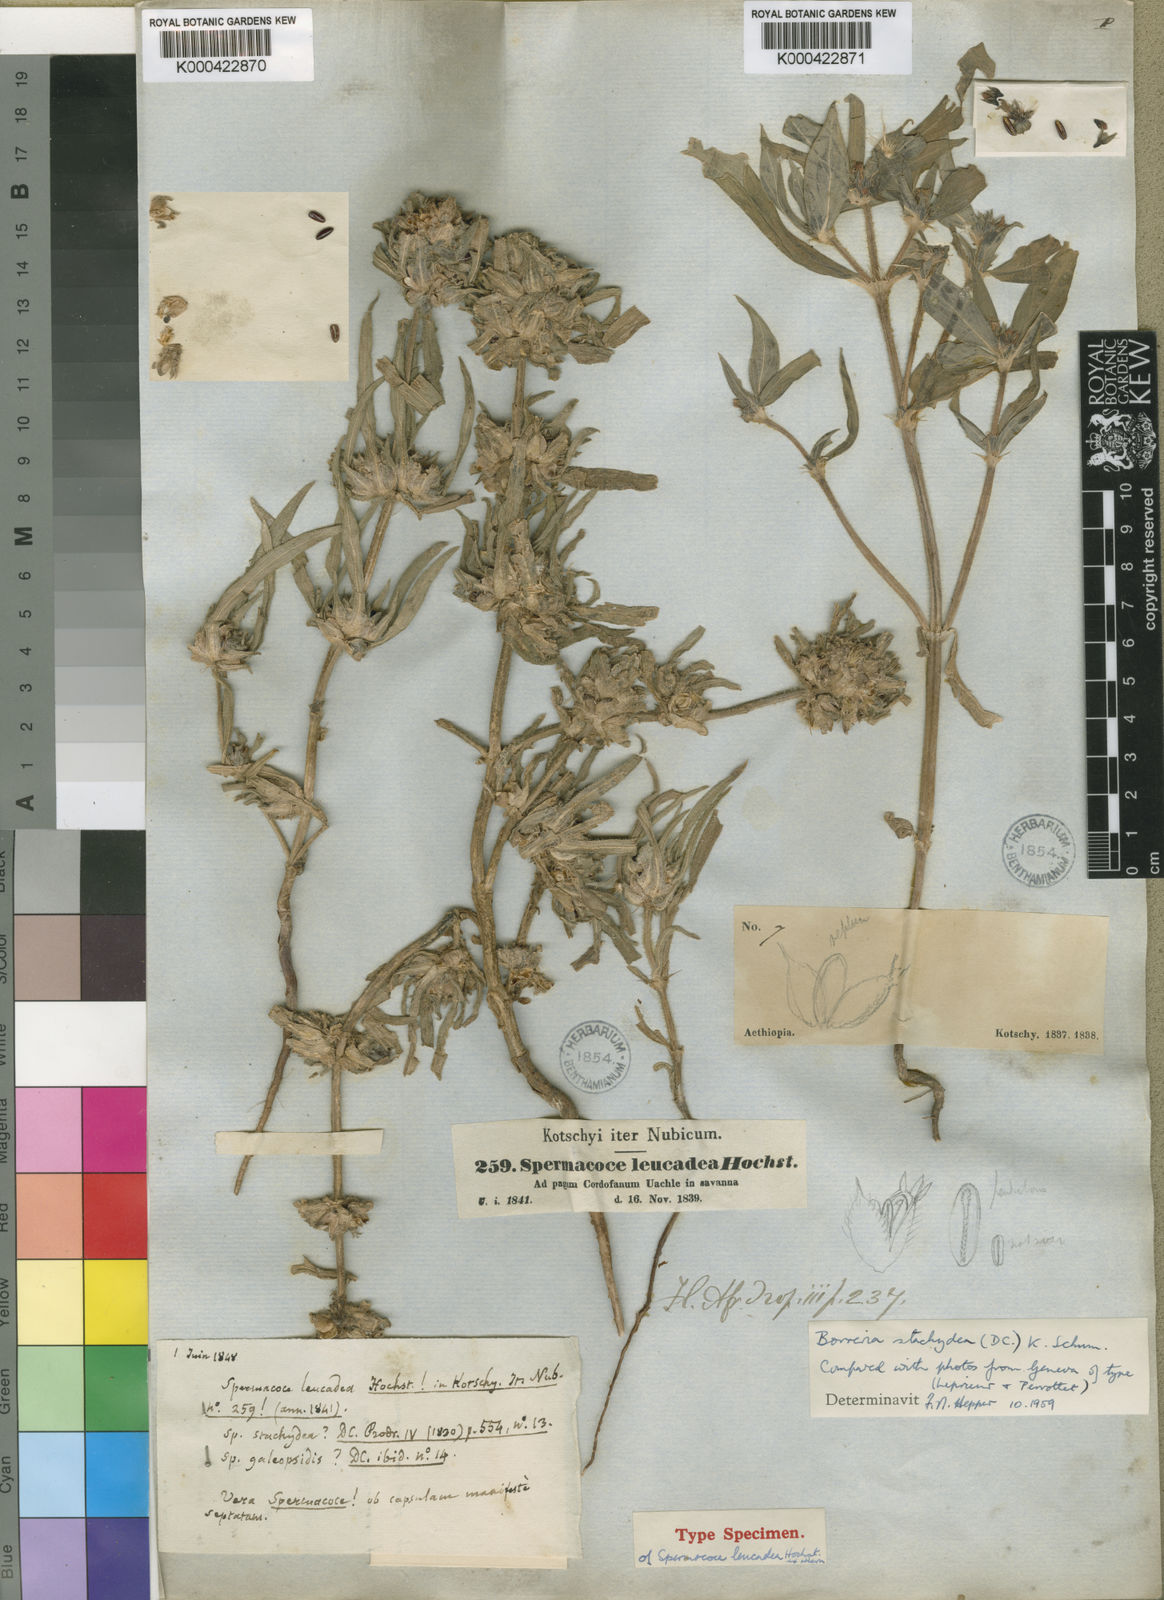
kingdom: Plantae
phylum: Tracheophyta
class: Magnoliopsida
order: Gentianales
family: Rubiaceae
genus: Spermacoce
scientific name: Spermacoce stachydea
